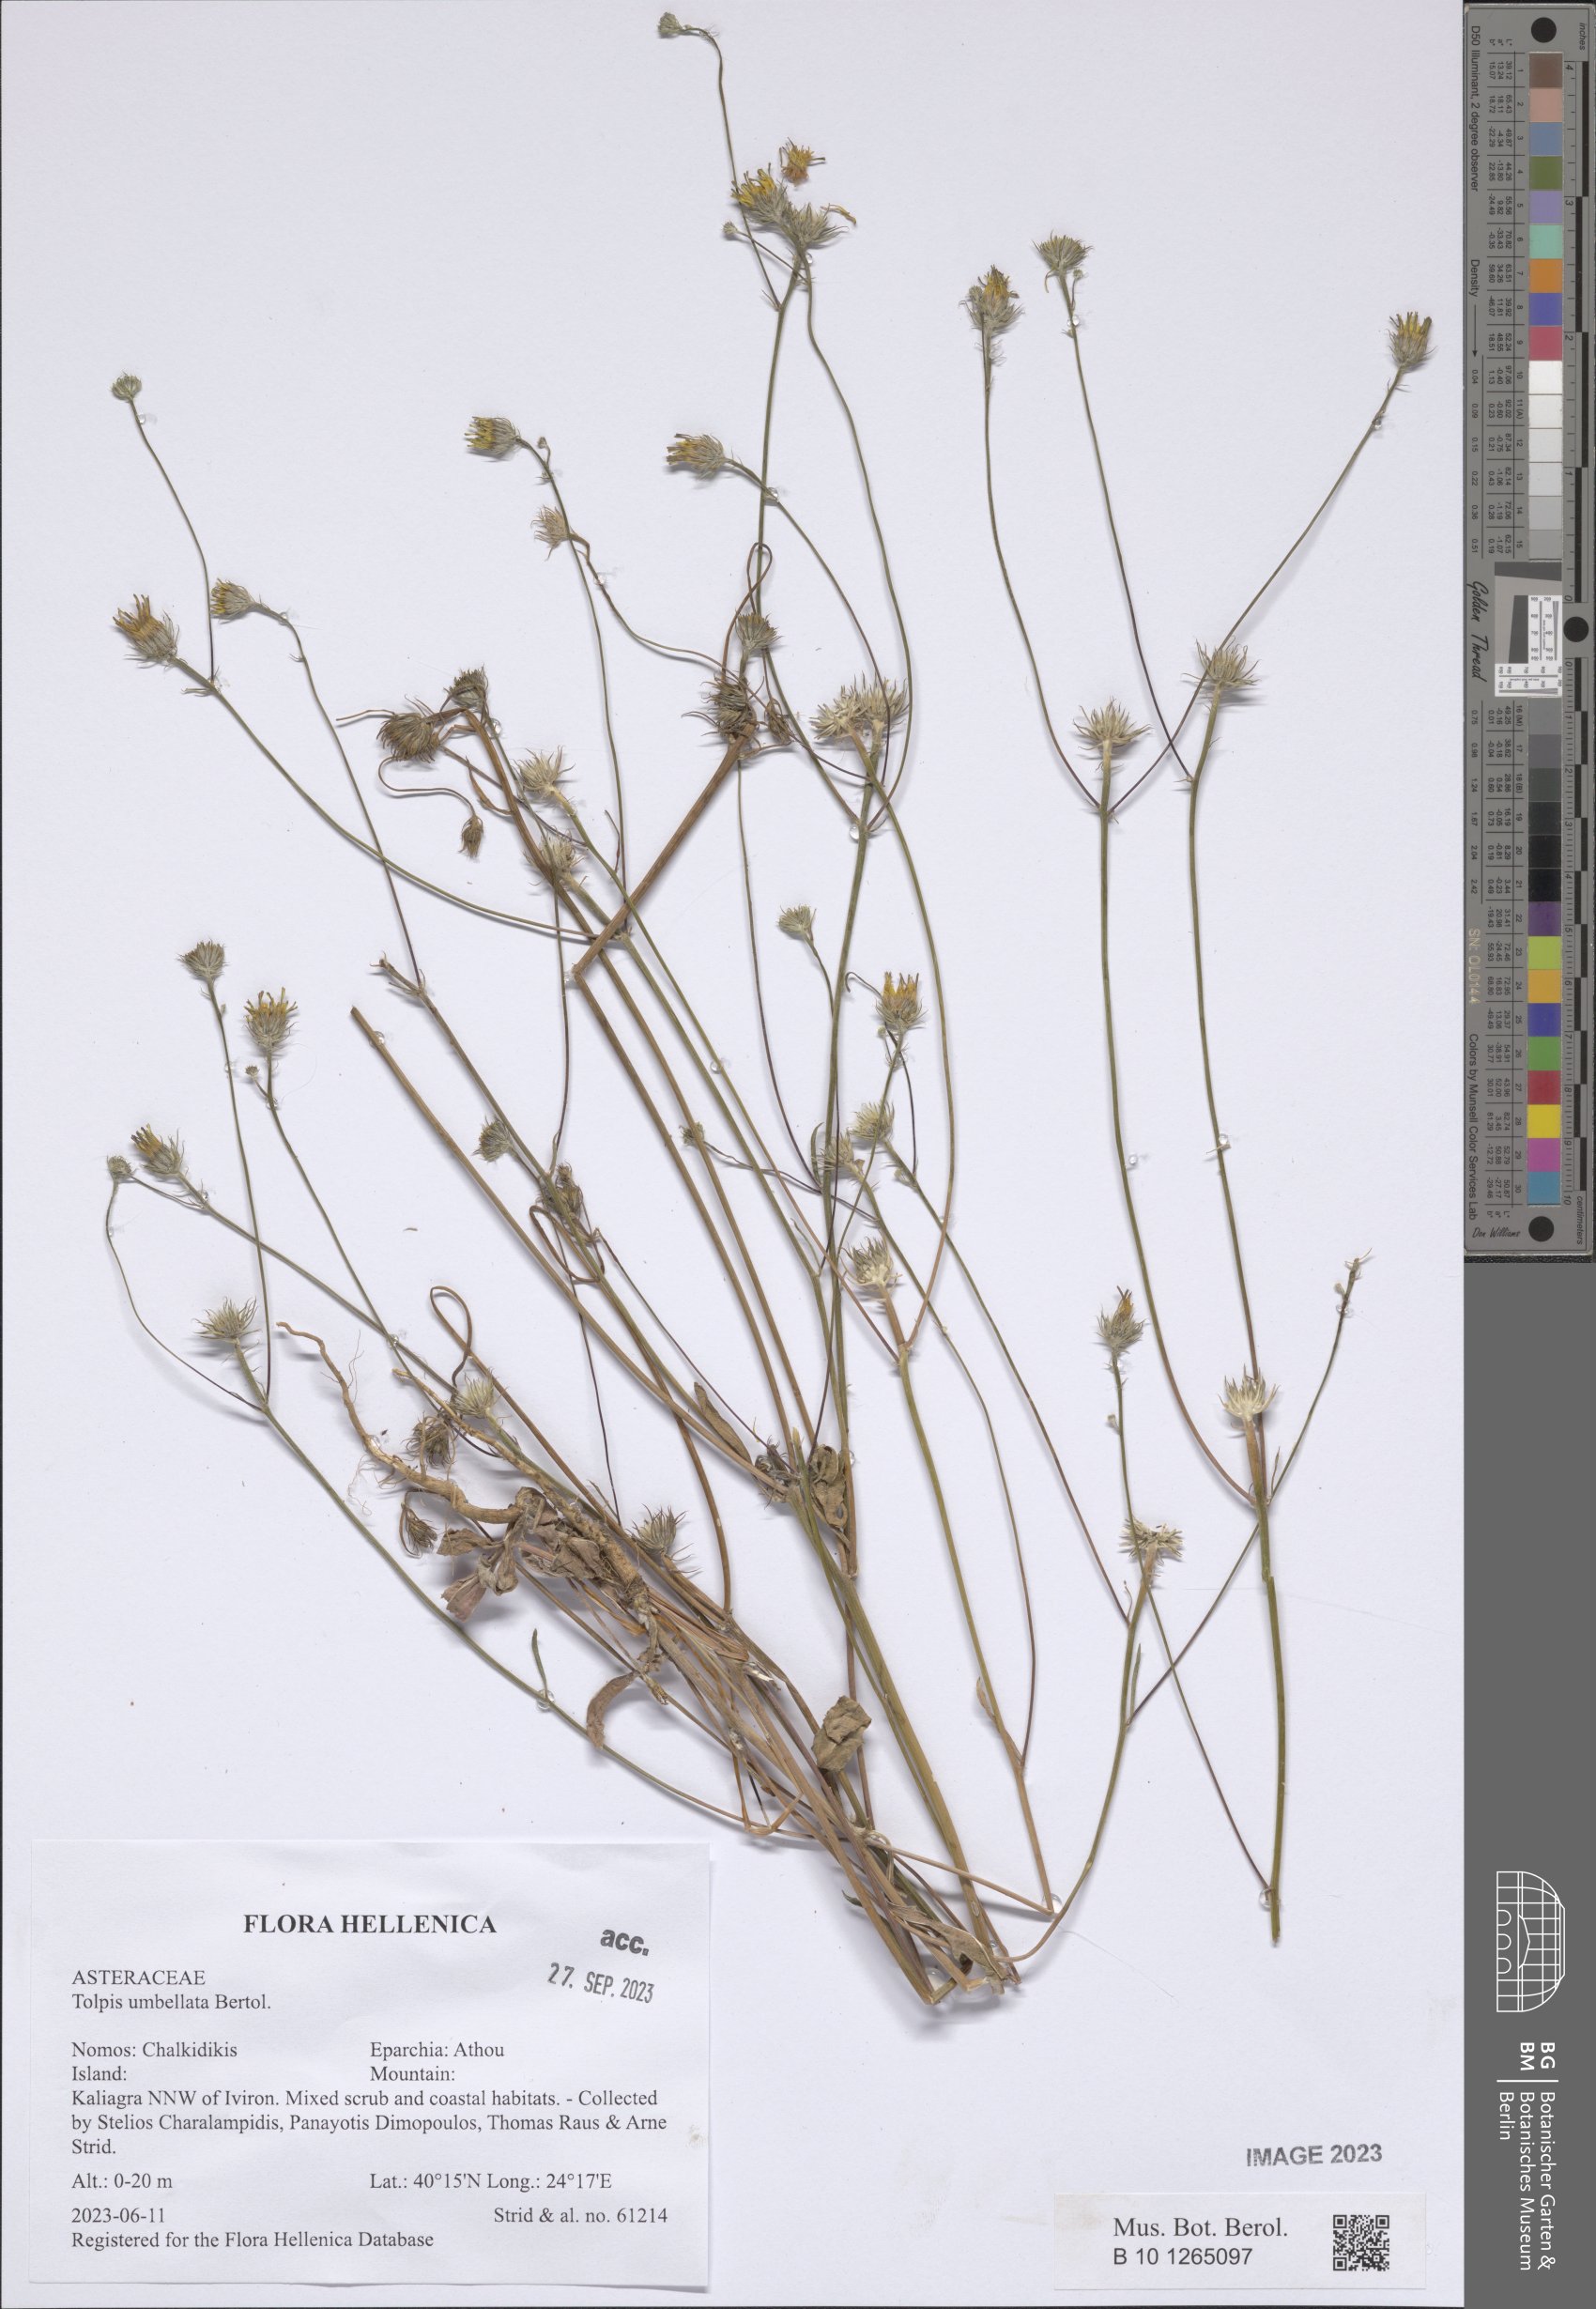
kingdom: Plantae
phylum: Tracheophyta
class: Magnoliopsida
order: Asterales
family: Asteraceae
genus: Tolpis
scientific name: Tolpis umbellata
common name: Yellow hawkweed
